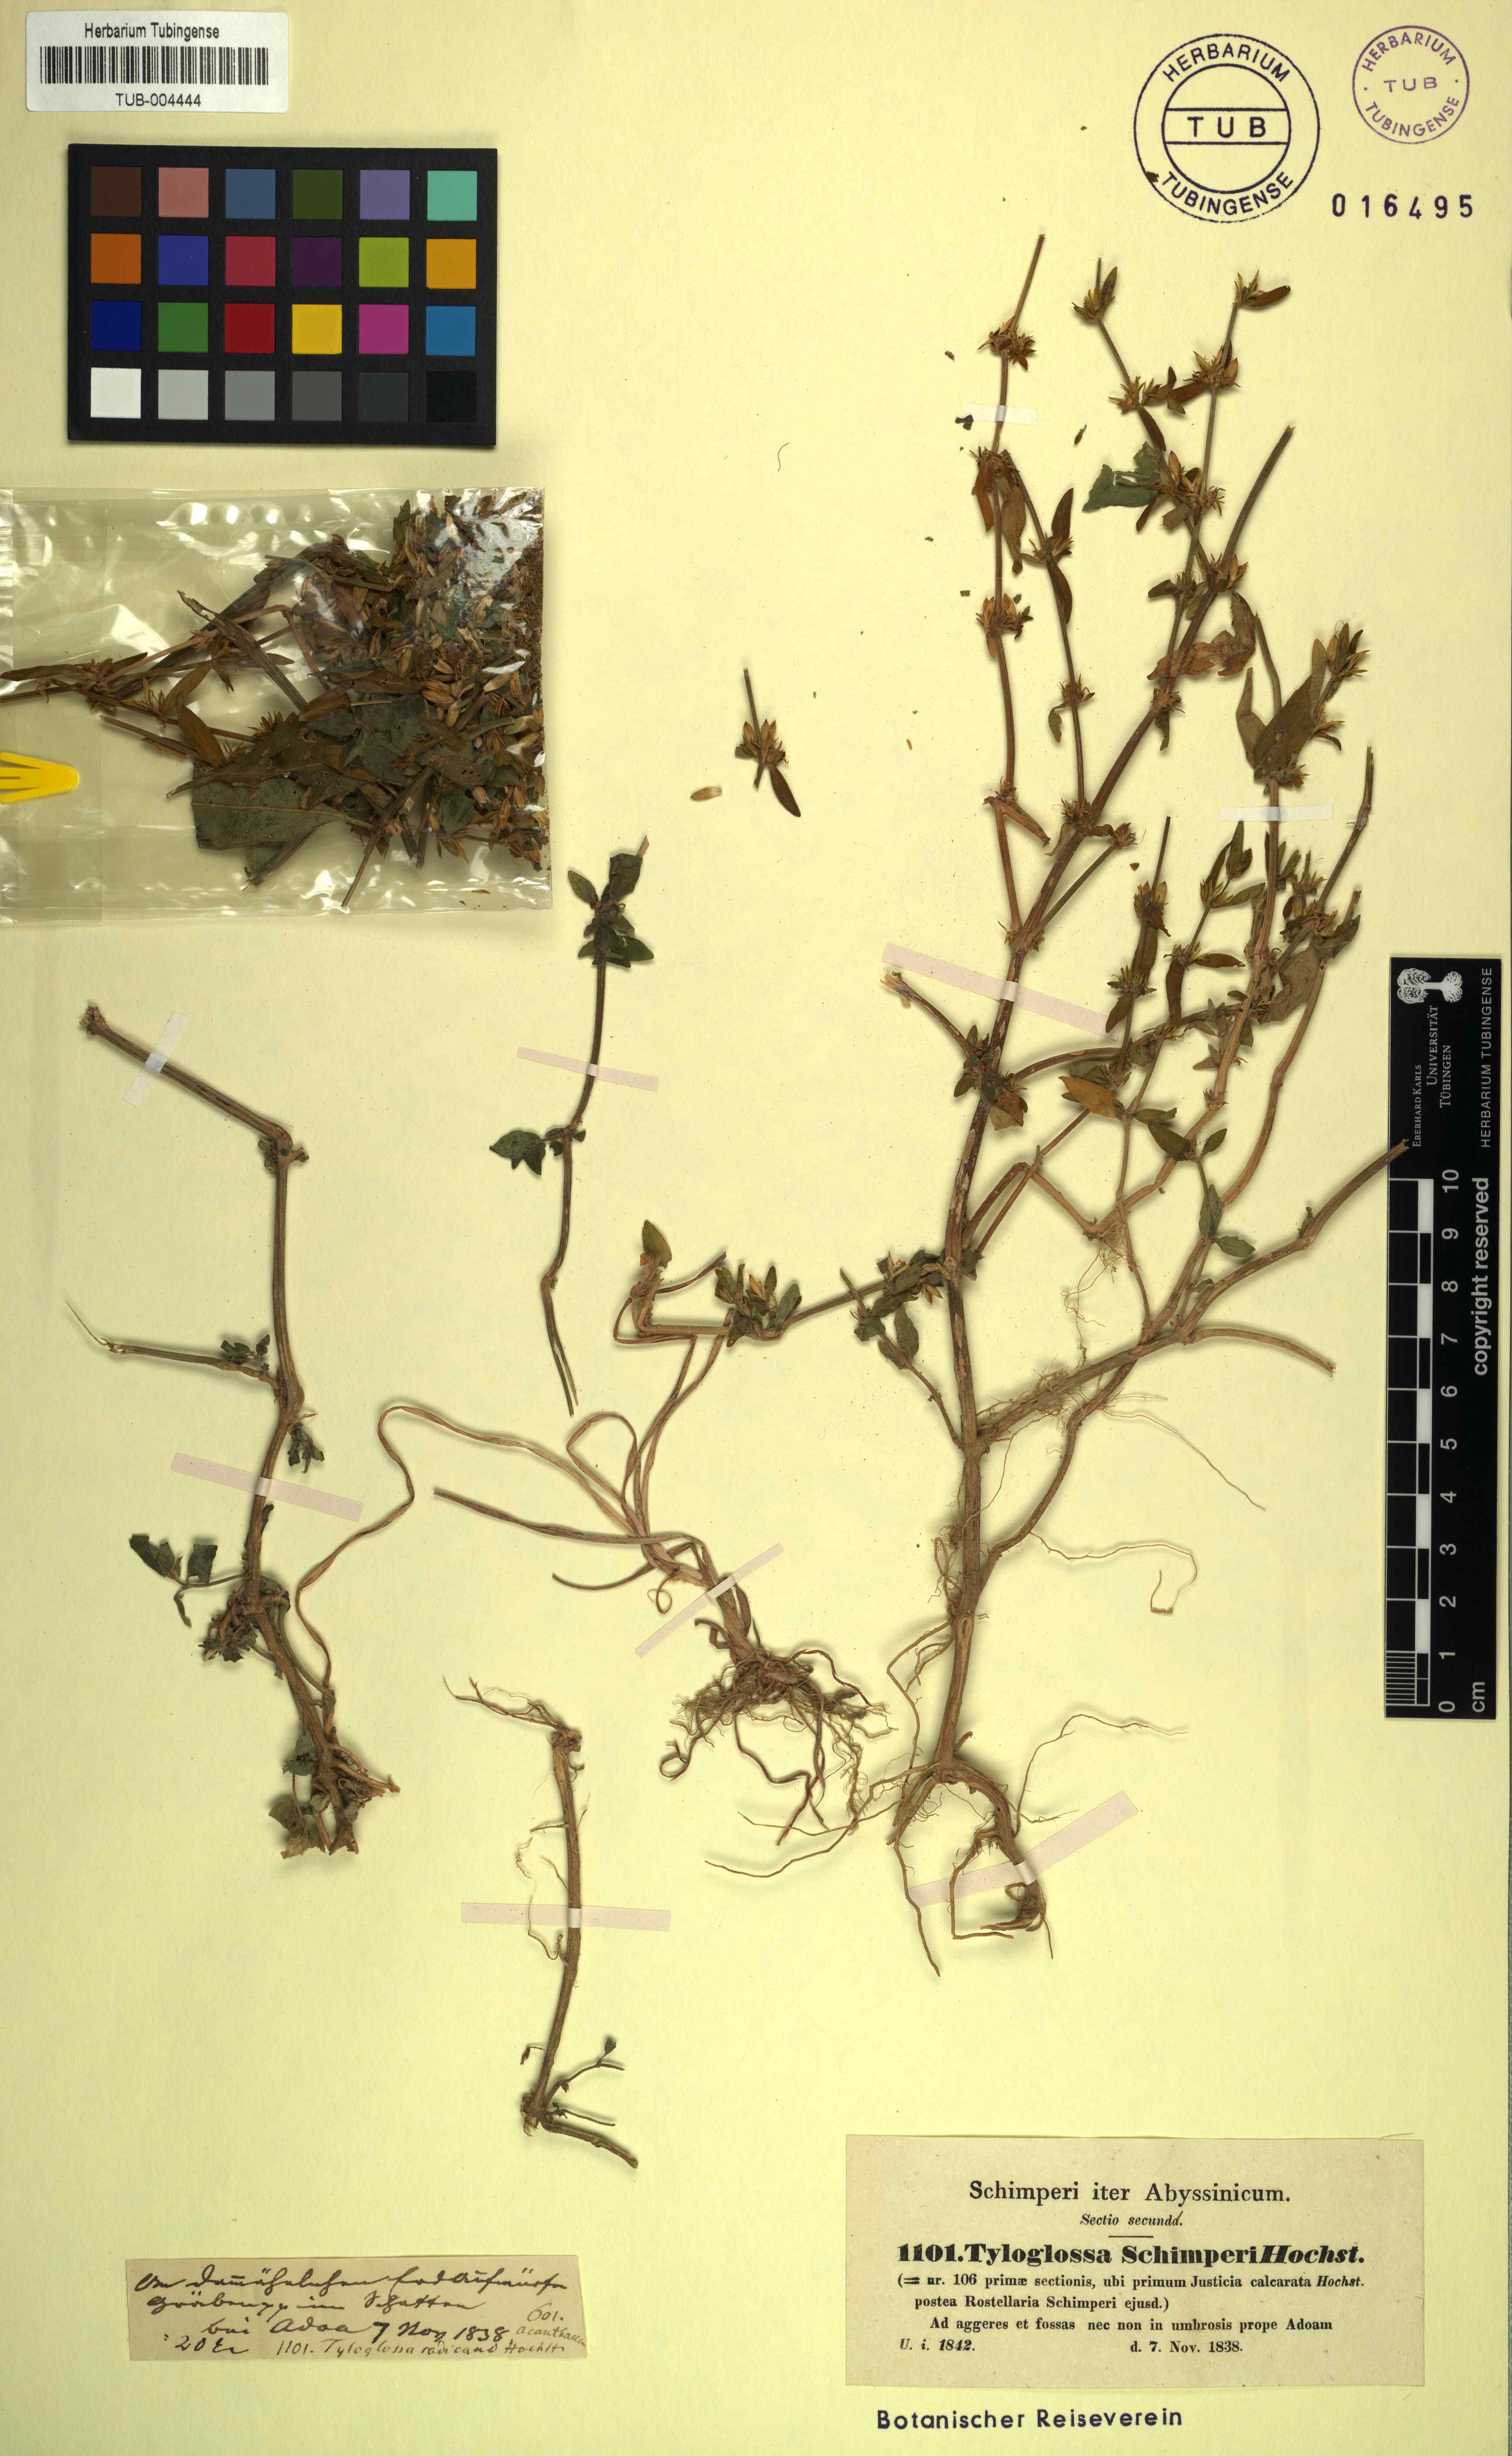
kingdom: Plantae
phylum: Tracheophyta
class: Magnoliopsida
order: Lamiales
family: Acanthaceae
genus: Justicia
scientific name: Justicia schimperiana
